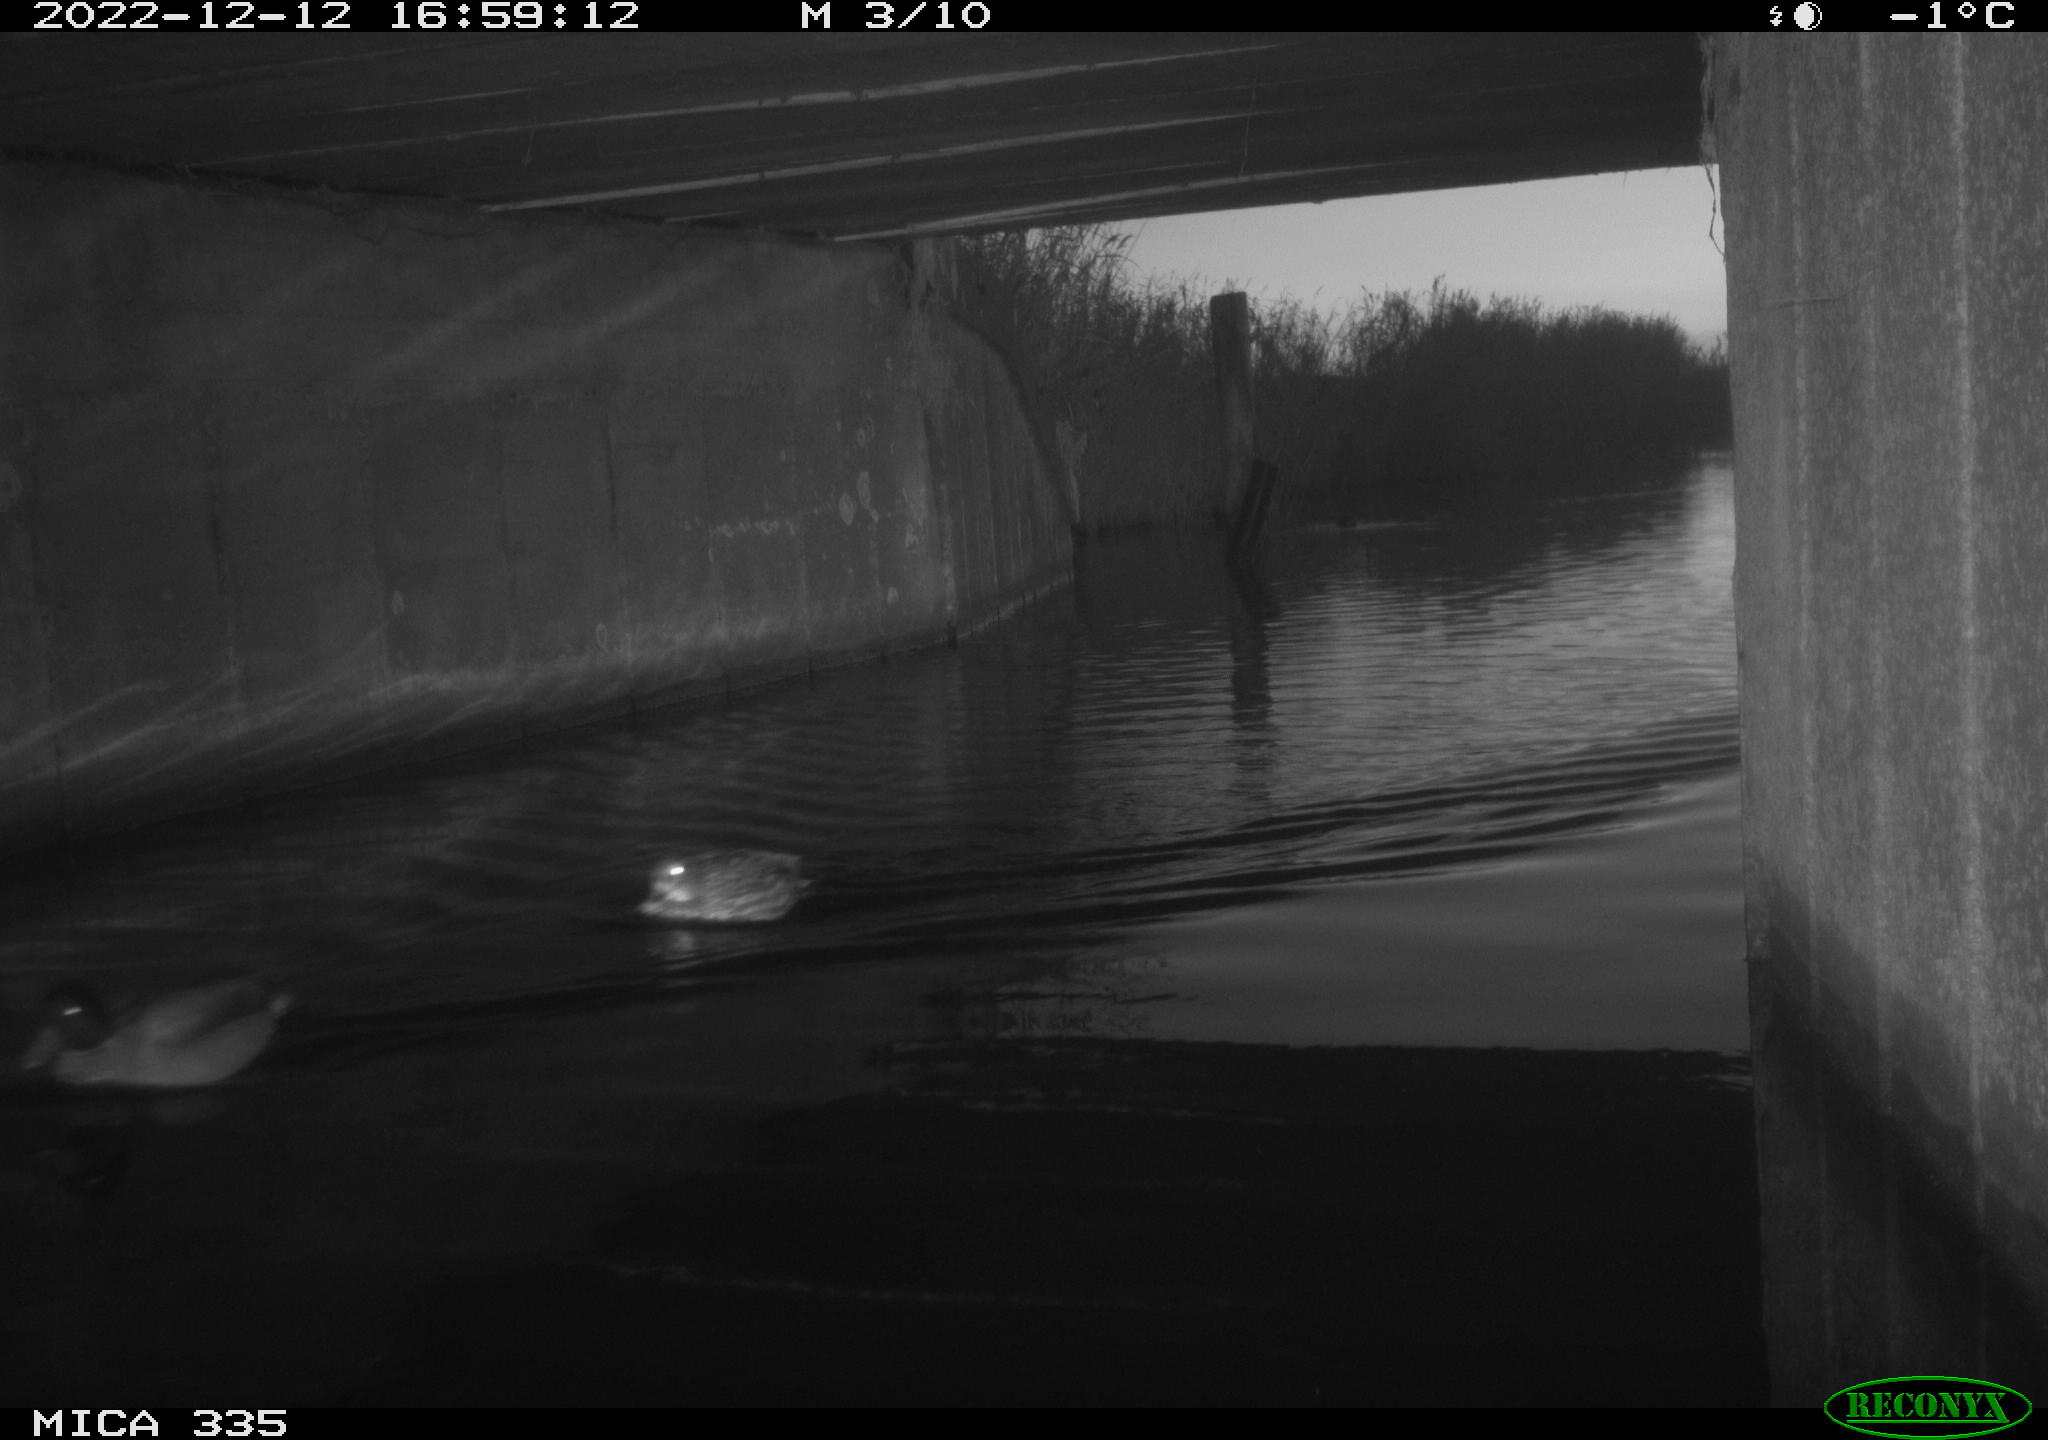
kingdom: Animalia
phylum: Chordata
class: Aves
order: Anseriformes
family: Anatidae
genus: Anas
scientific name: Anas
